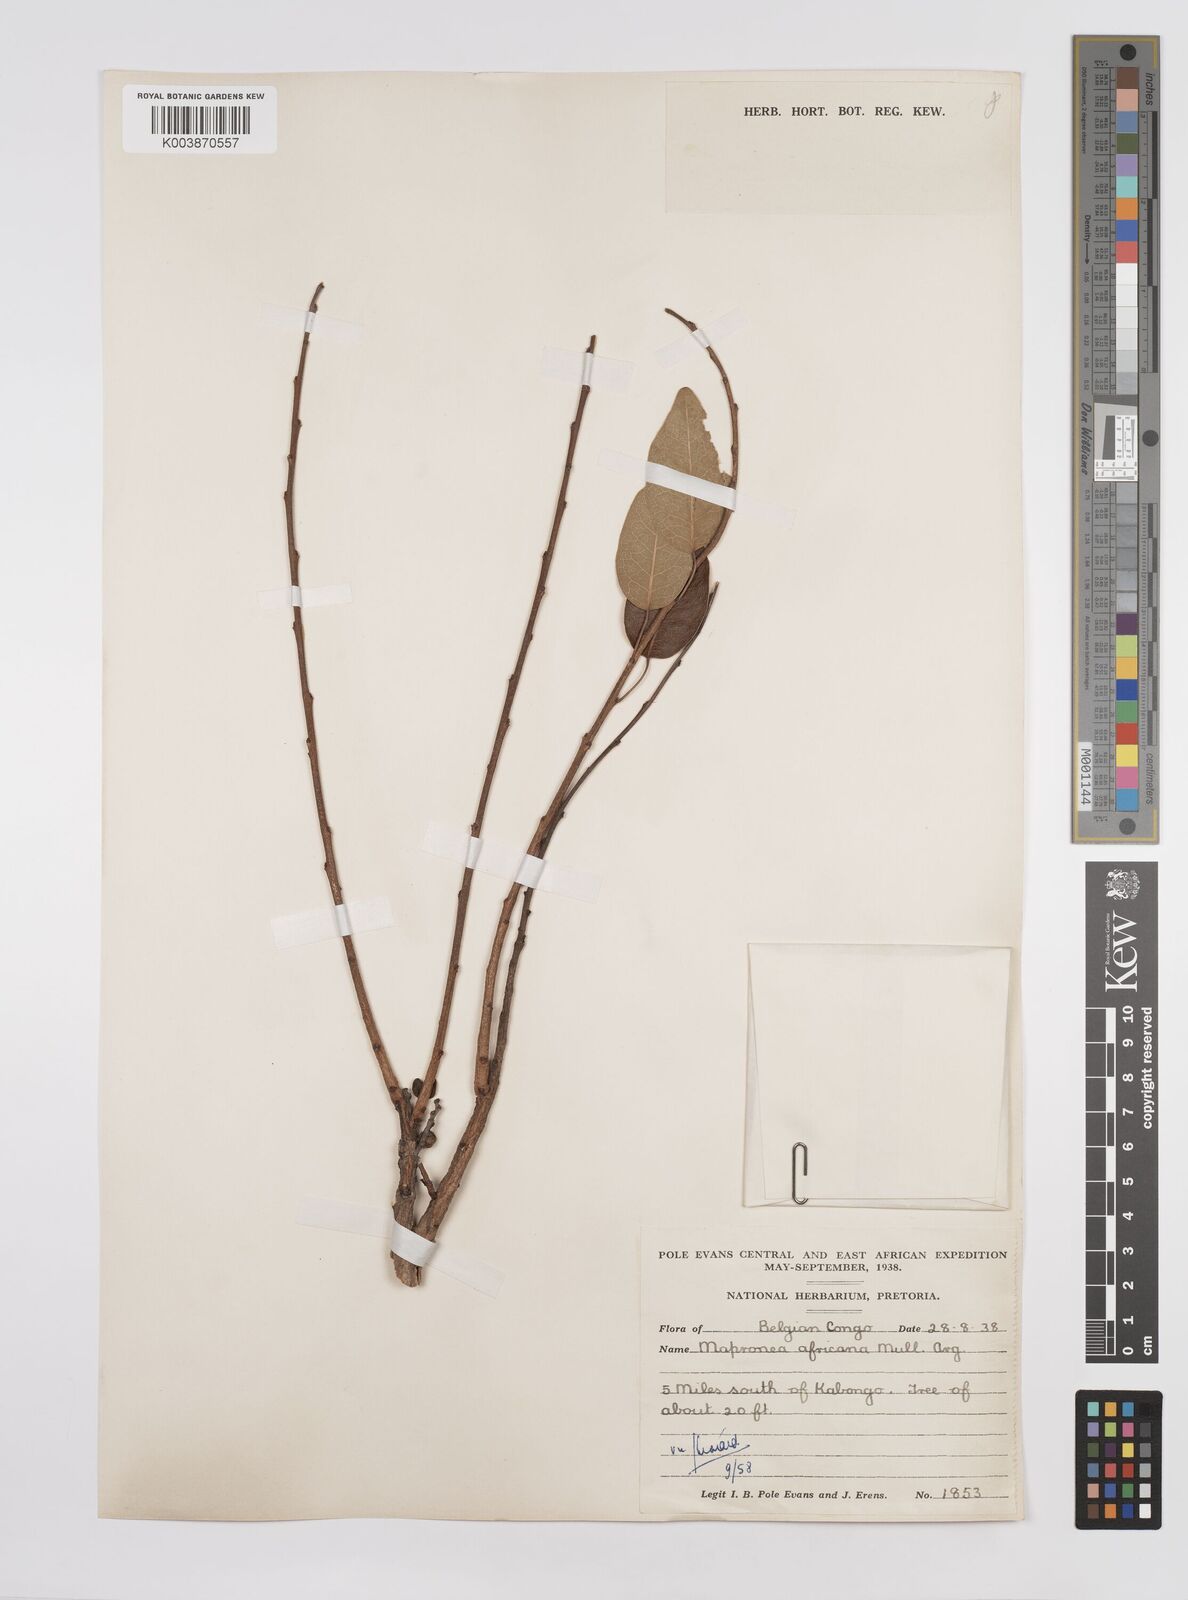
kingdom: Plantae
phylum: Tracheophyta
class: Magnoliopsida
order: Malpighiales
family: Euphorbiaceae
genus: Maprounea
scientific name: Maprounea africana
